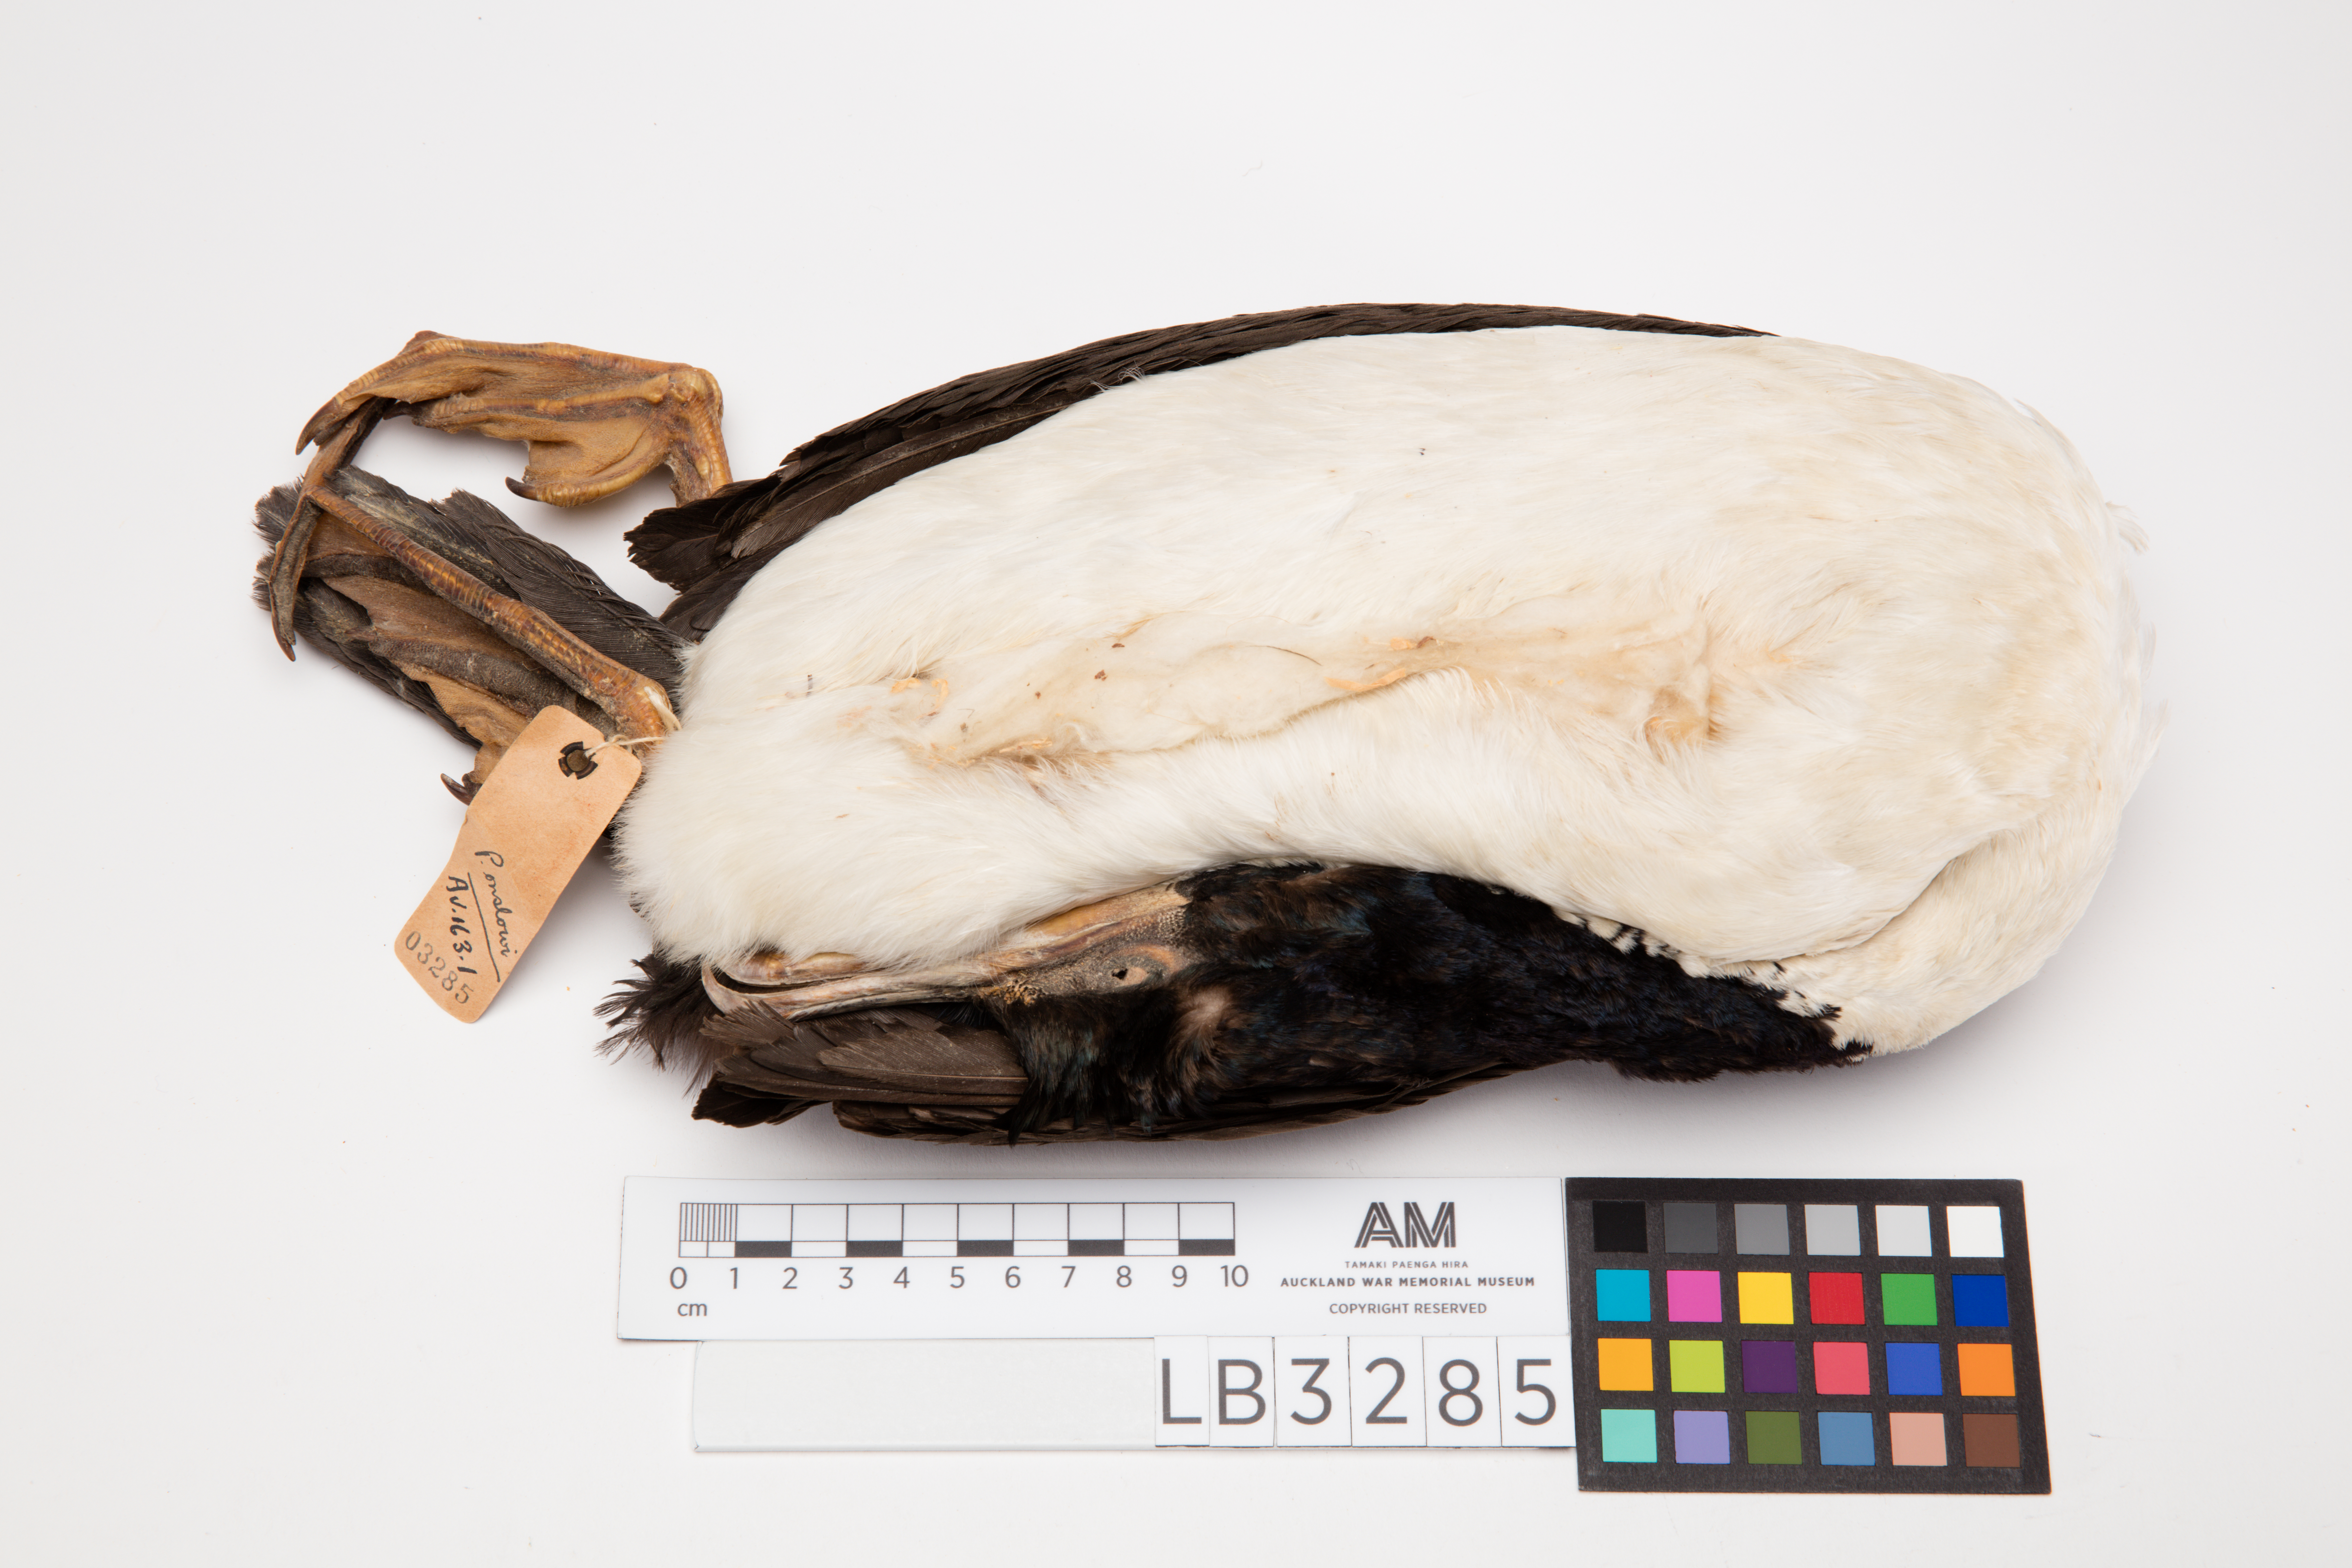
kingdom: Animalia
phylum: Chordata
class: Aves
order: Suliformes
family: Phalacrocoracidae
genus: Leucocarbo
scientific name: Leucocarbo onslowi
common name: Chatham shag
